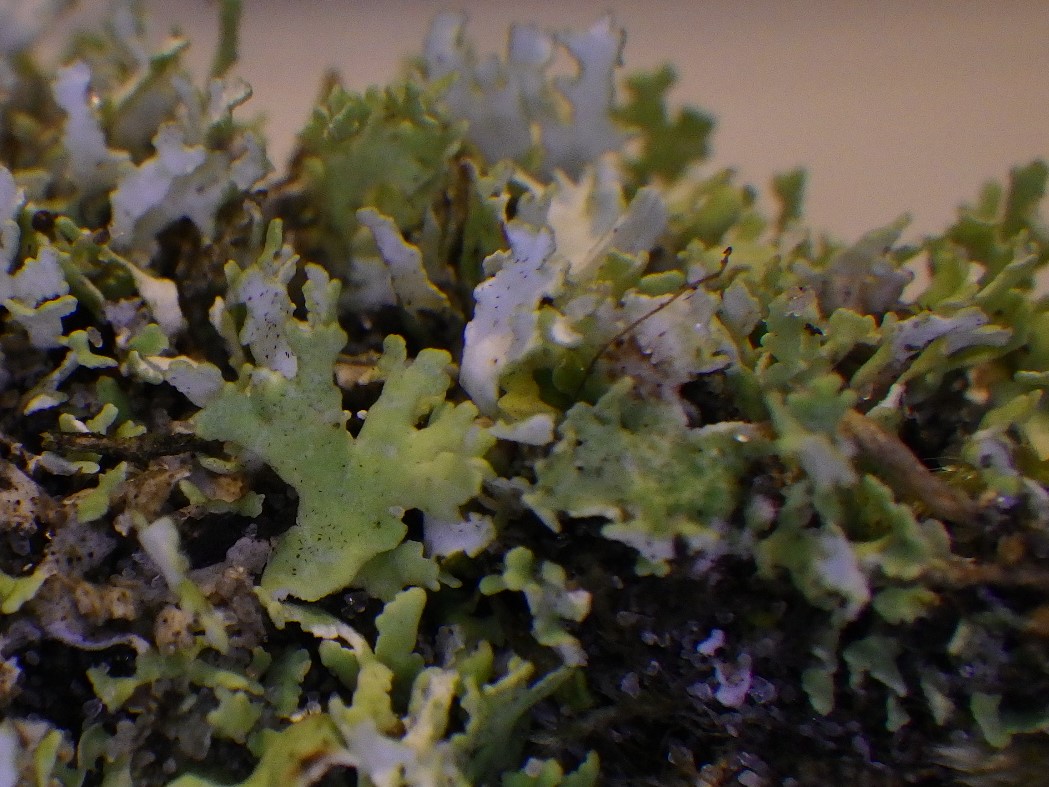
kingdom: Fungi
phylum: Ascomycota
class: Lecanoromycetes
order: Lecanorales
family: Cladoniaceae
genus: Cladonia
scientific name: Cladonia foliacea
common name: fliget bægerlav
